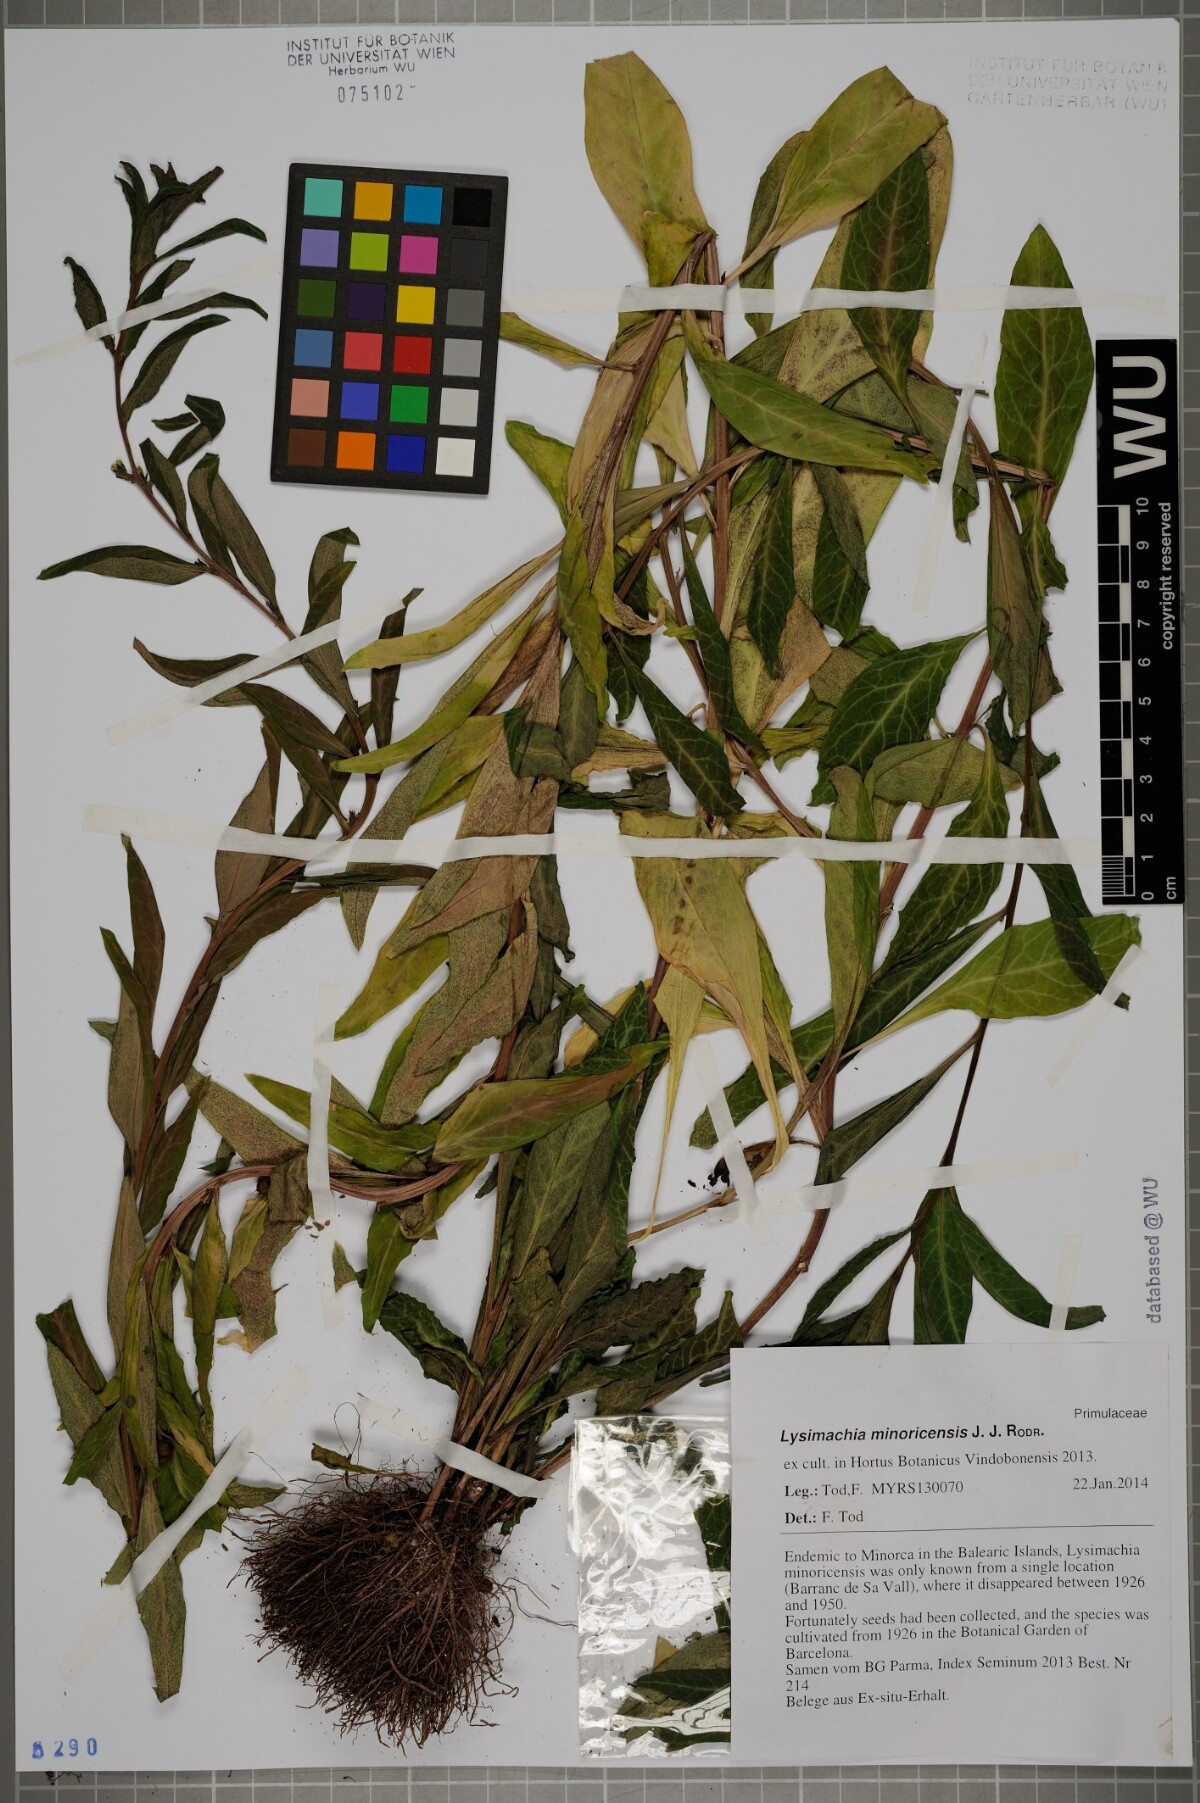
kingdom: Plantae
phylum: Tracheophyta
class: Magnoliopsida
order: Ericales
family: Primulaceae
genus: Lysimachia
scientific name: Lysimachia minoricensis
